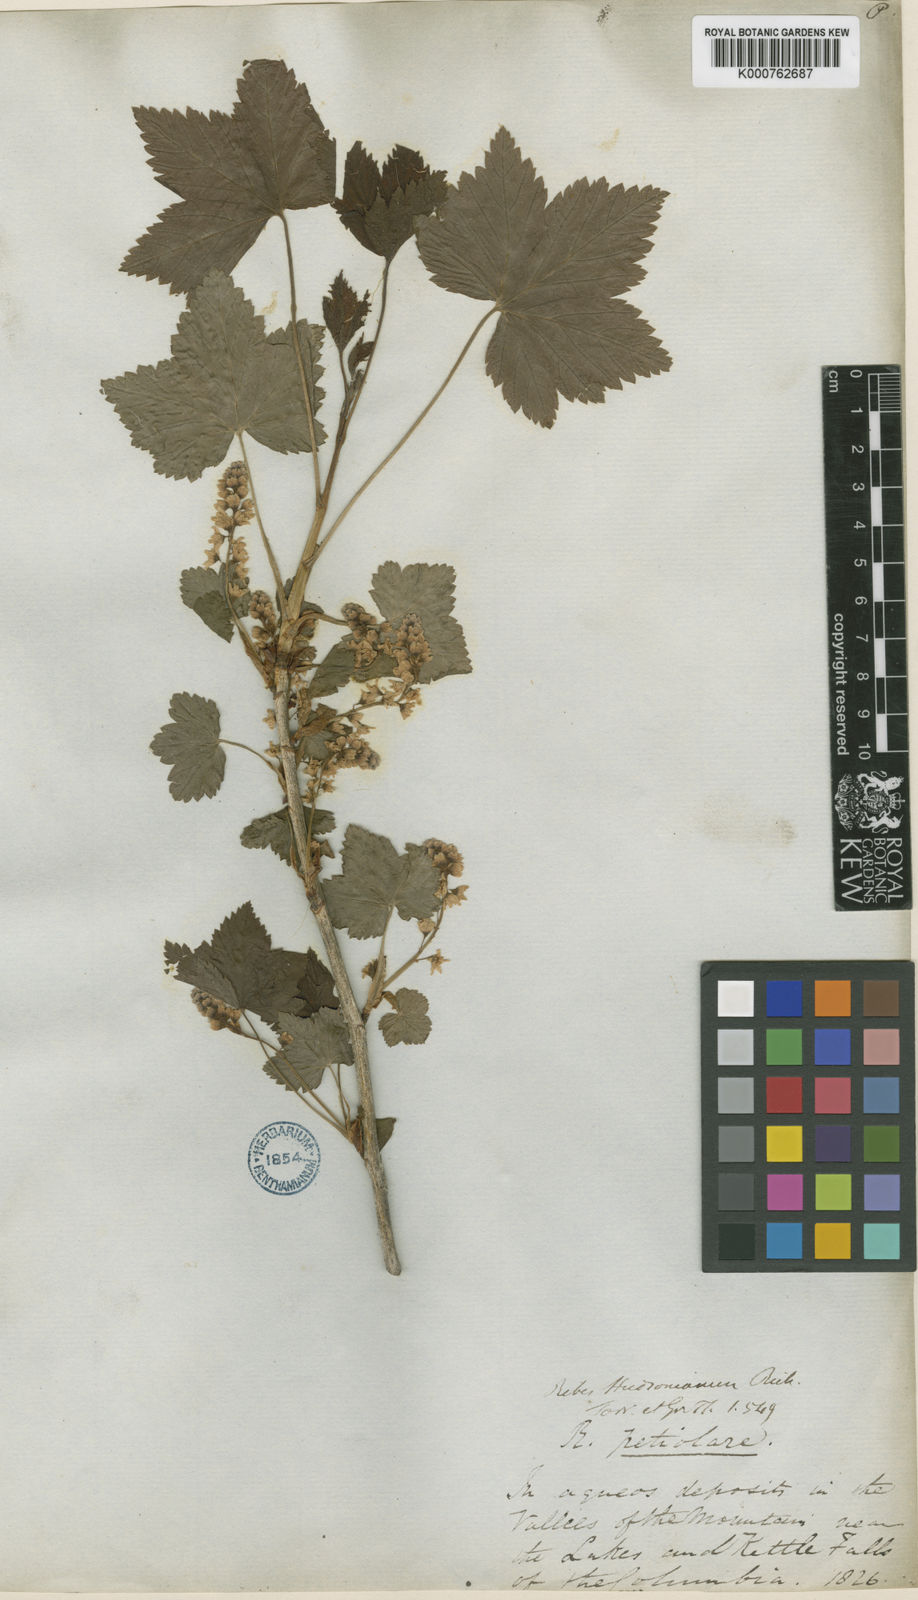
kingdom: Plantae
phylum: Tracheophyta
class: Magnoliopsida
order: Saxifragales
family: Grossulariaceae
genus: Ribes
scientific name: Ribes hudsonianum
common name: Northern black currant
